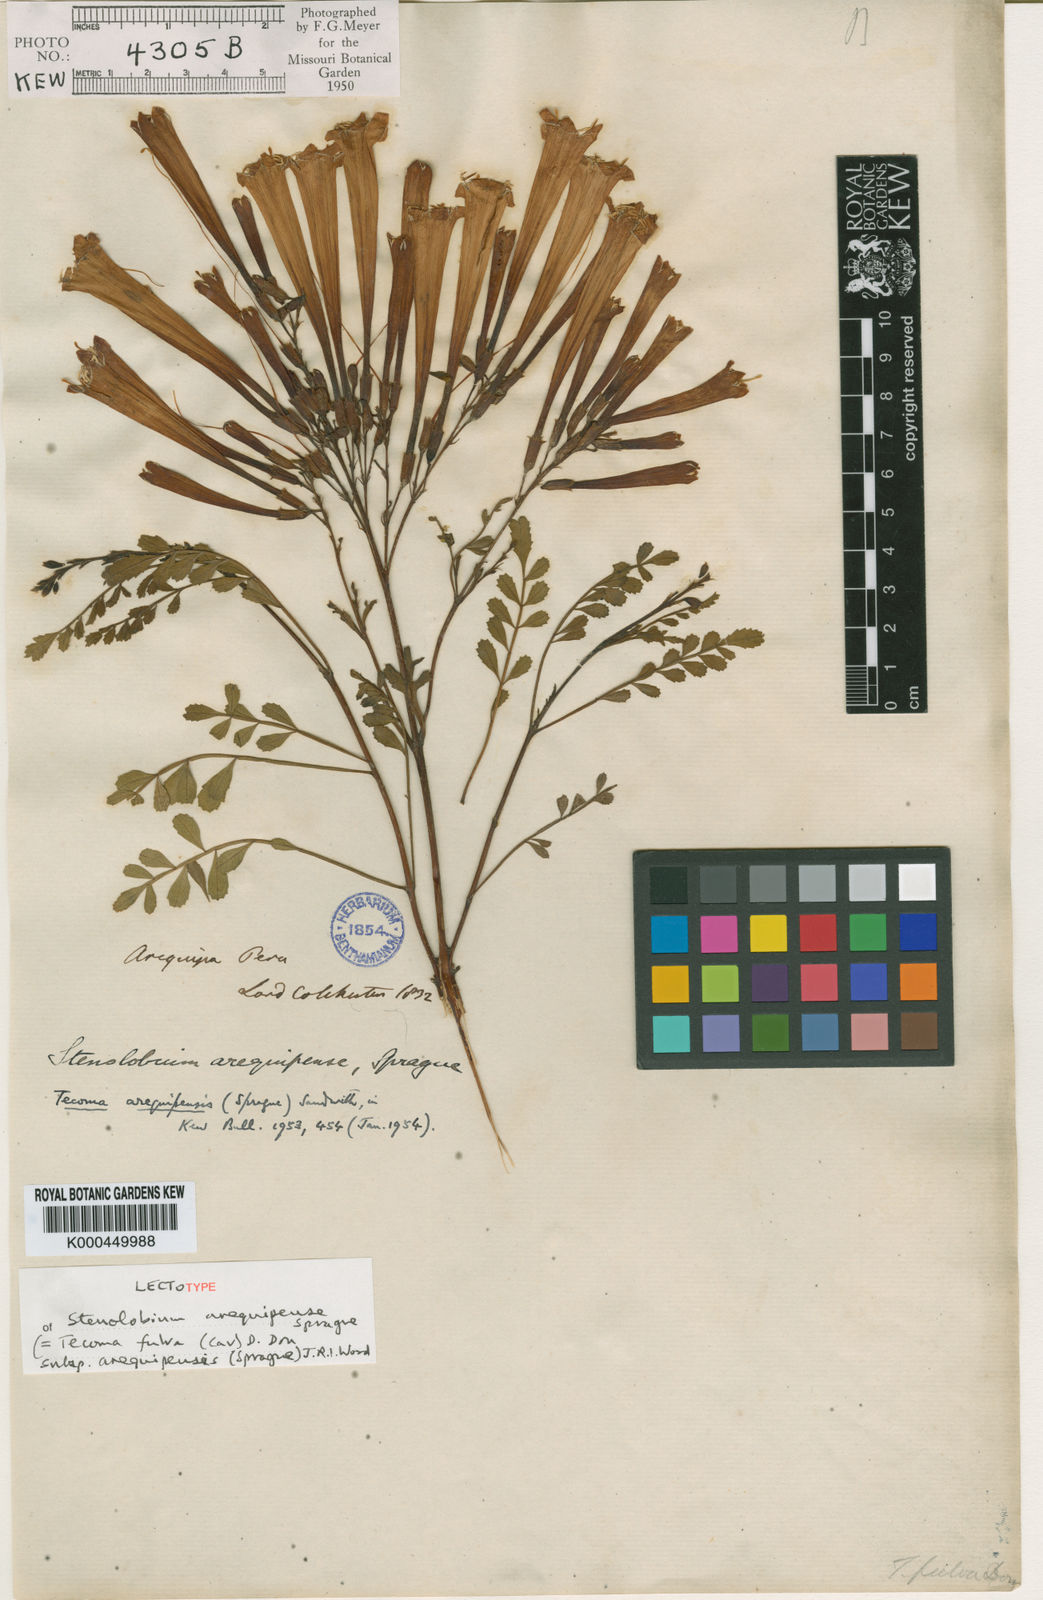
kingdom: Plantae
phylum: Tracheophyta
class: Magnoliopsida
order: Lamiales
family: Bignoniaceae
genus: Tecoma
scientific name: Tecoma fulva
